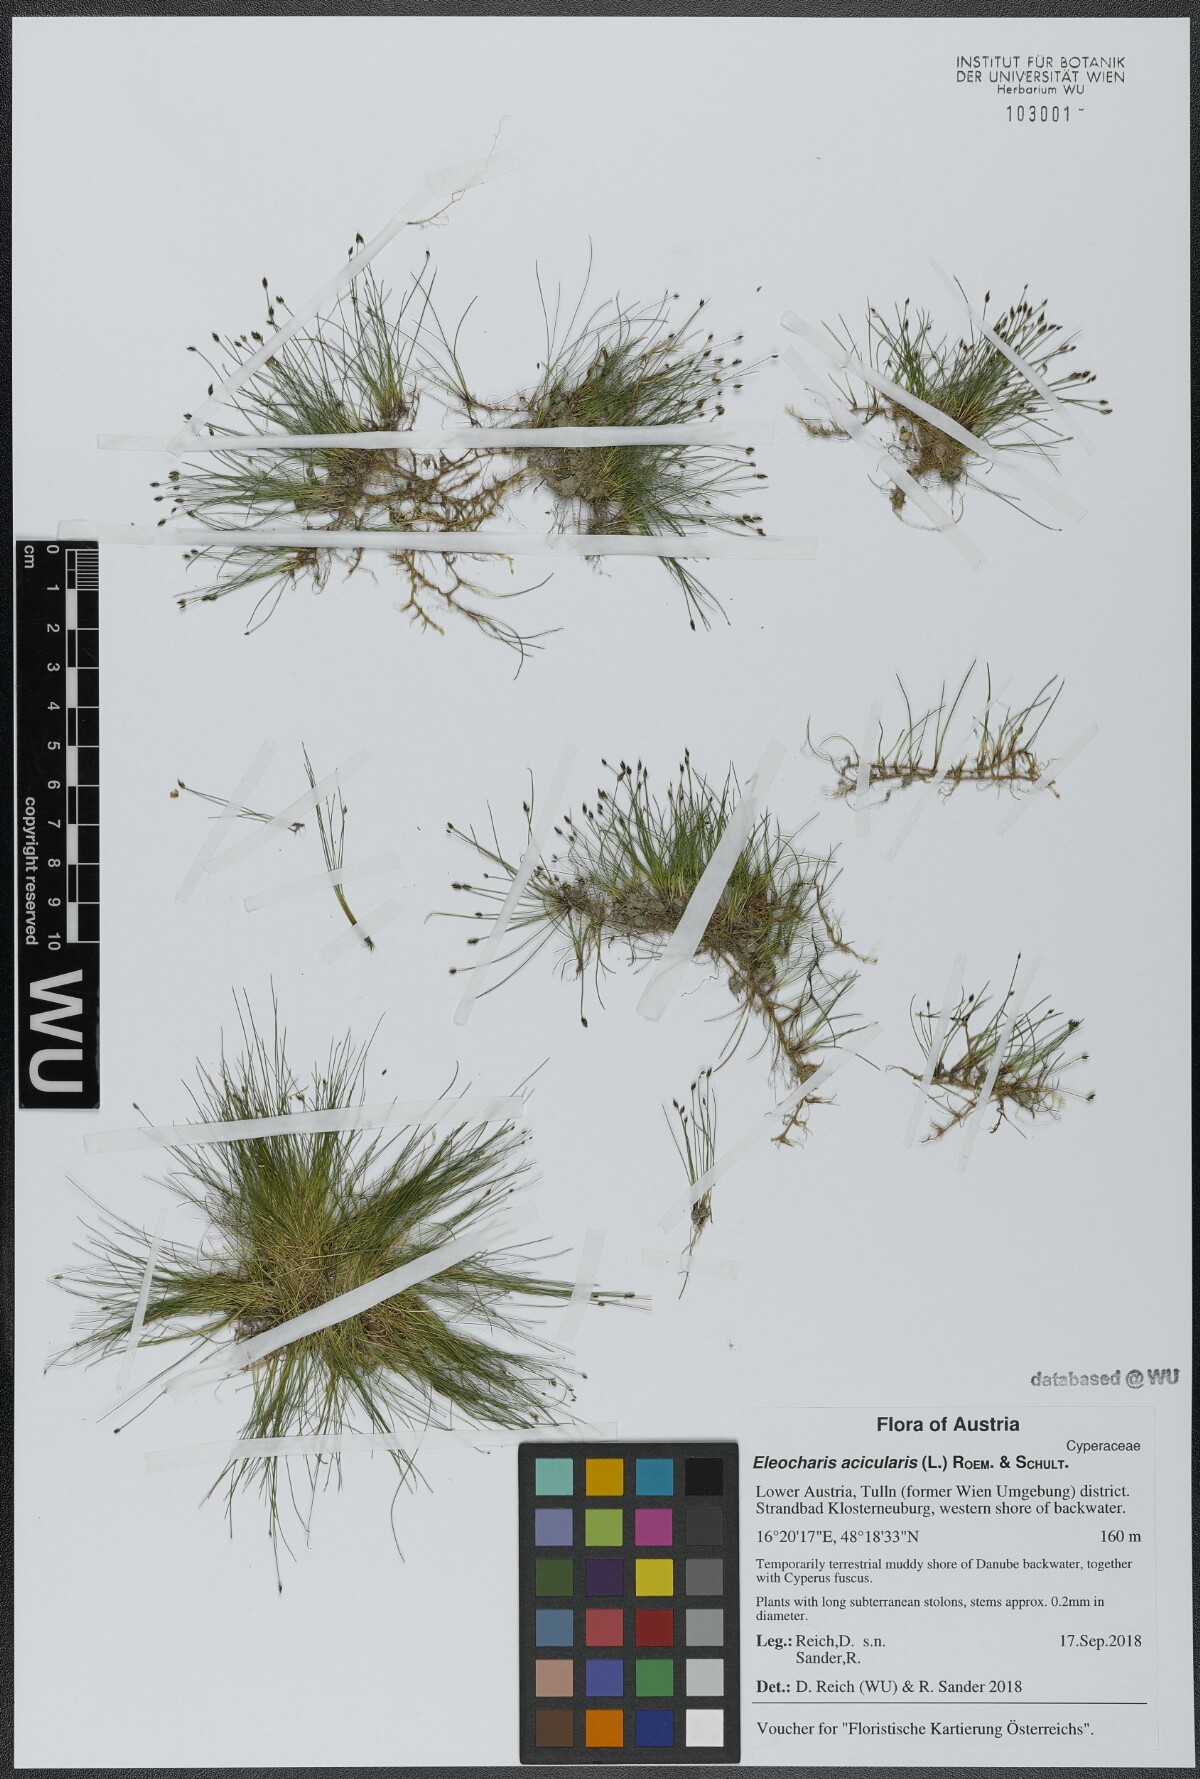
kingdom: Plantae
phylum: Tracheophyta
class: Liliopsida
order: Poales
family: Cyperaceae
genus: Eleocharis
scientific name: Eleocharis acicularis
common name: Needle spike-rush
